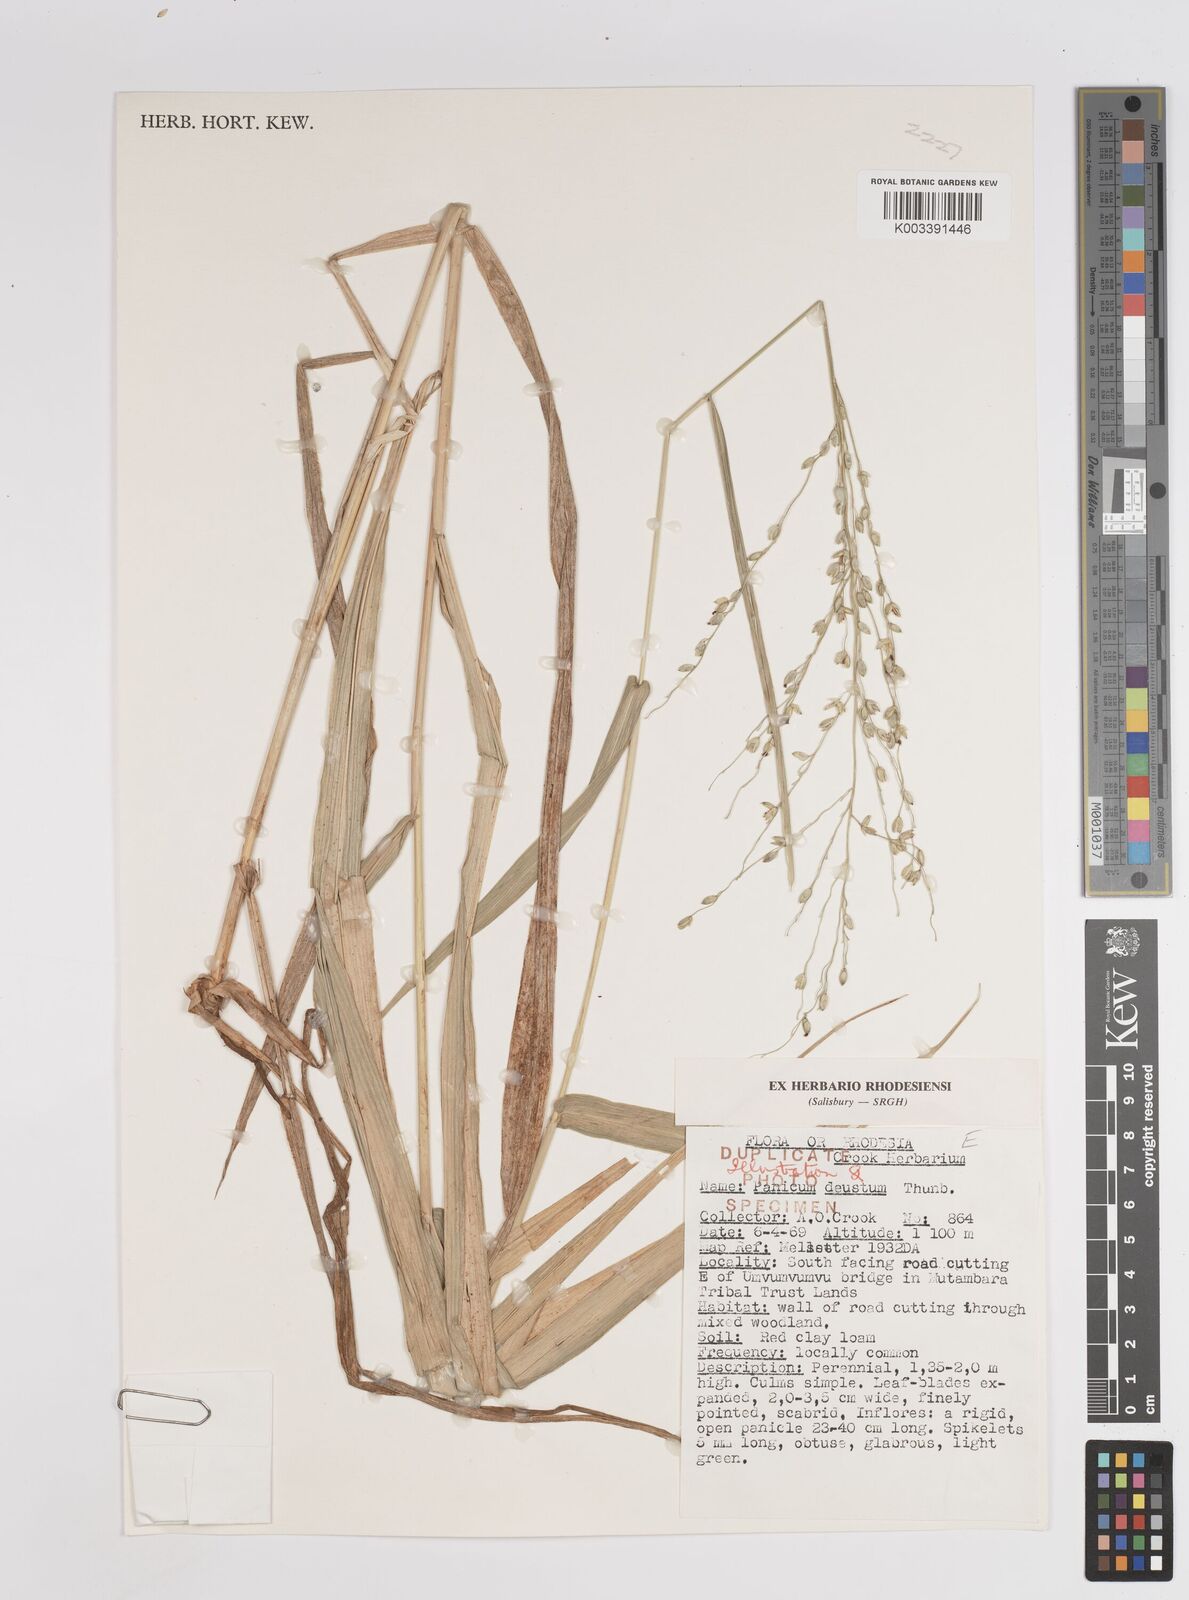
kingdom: Plantae
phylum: Tracheophyta
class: Liliopsida
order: Poales
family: Poaceae
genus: Panicum
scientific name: Panicum deustum
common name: Reed panicum
